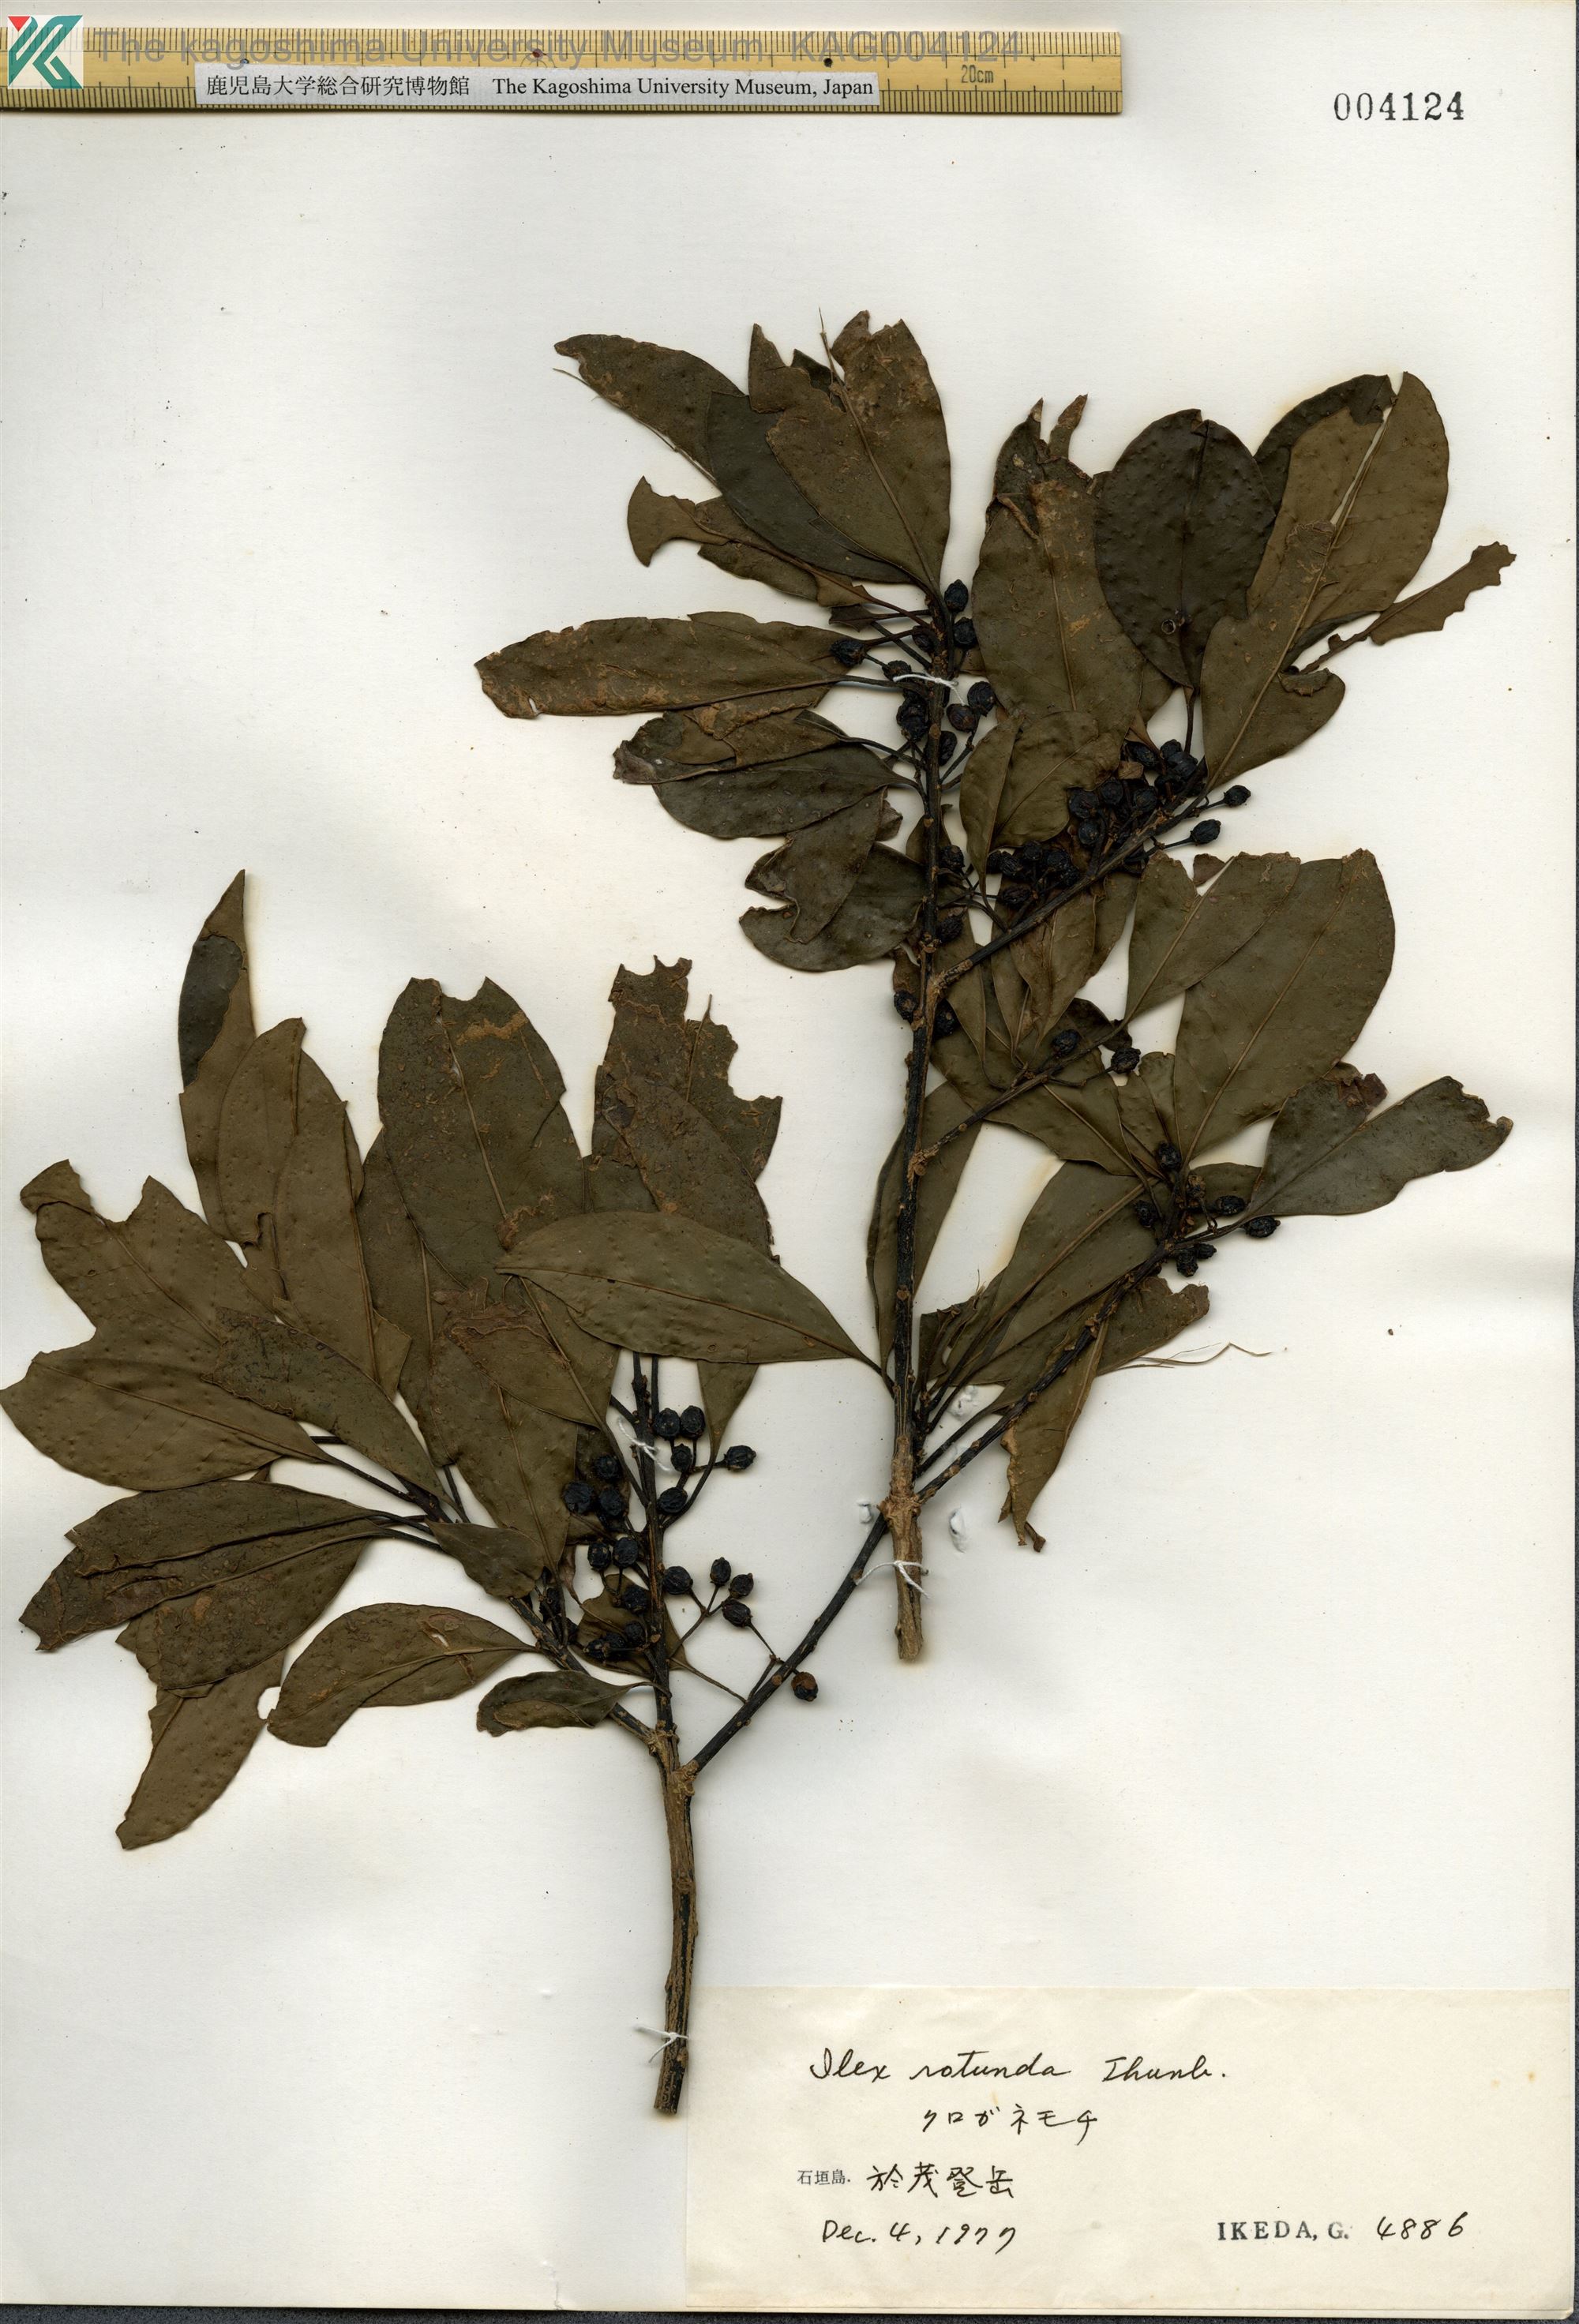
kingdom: Plantae
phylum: Tracheophyta
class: Magnoliopsida
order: Aquifoliales
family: Aquifoliaceae
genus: Ilex
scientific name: Ilex rotunda
